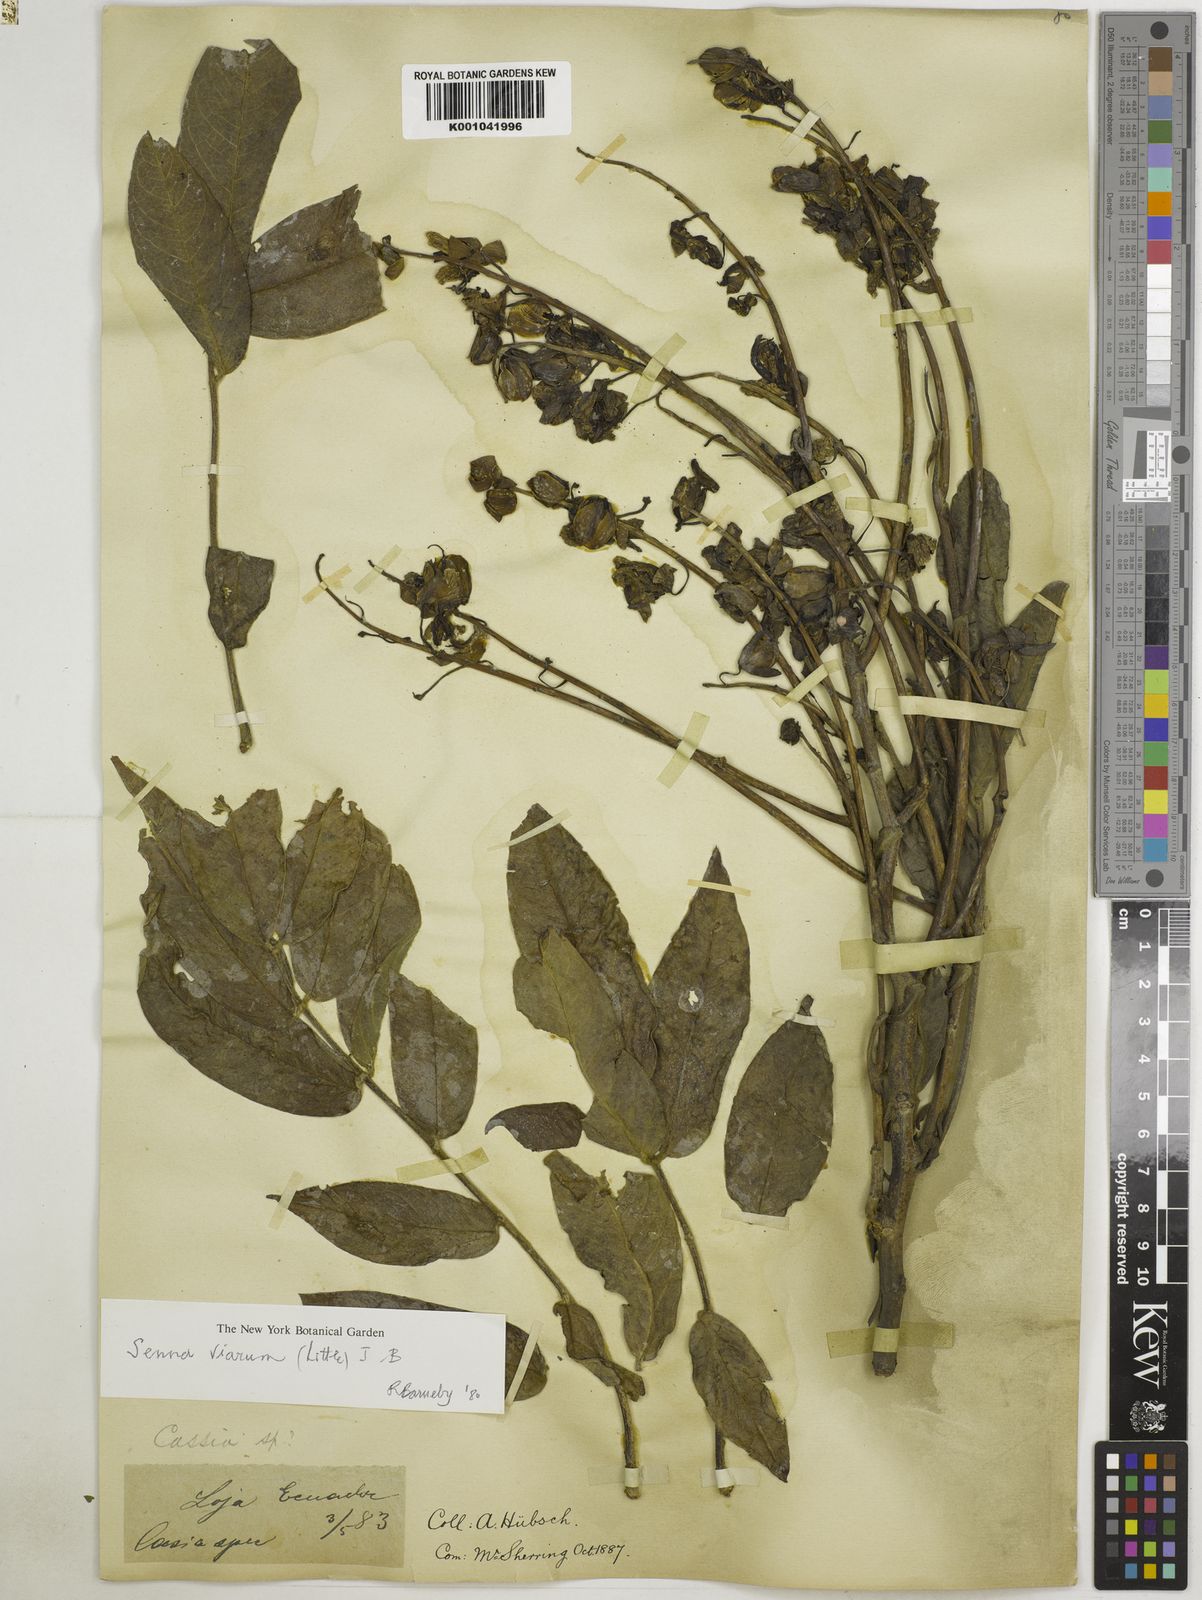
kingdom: Plantae
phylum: Tracheophyta
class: Magnoliopsida
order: Fabales
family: Fabaceae
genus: Senna
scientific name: Senna viarum
